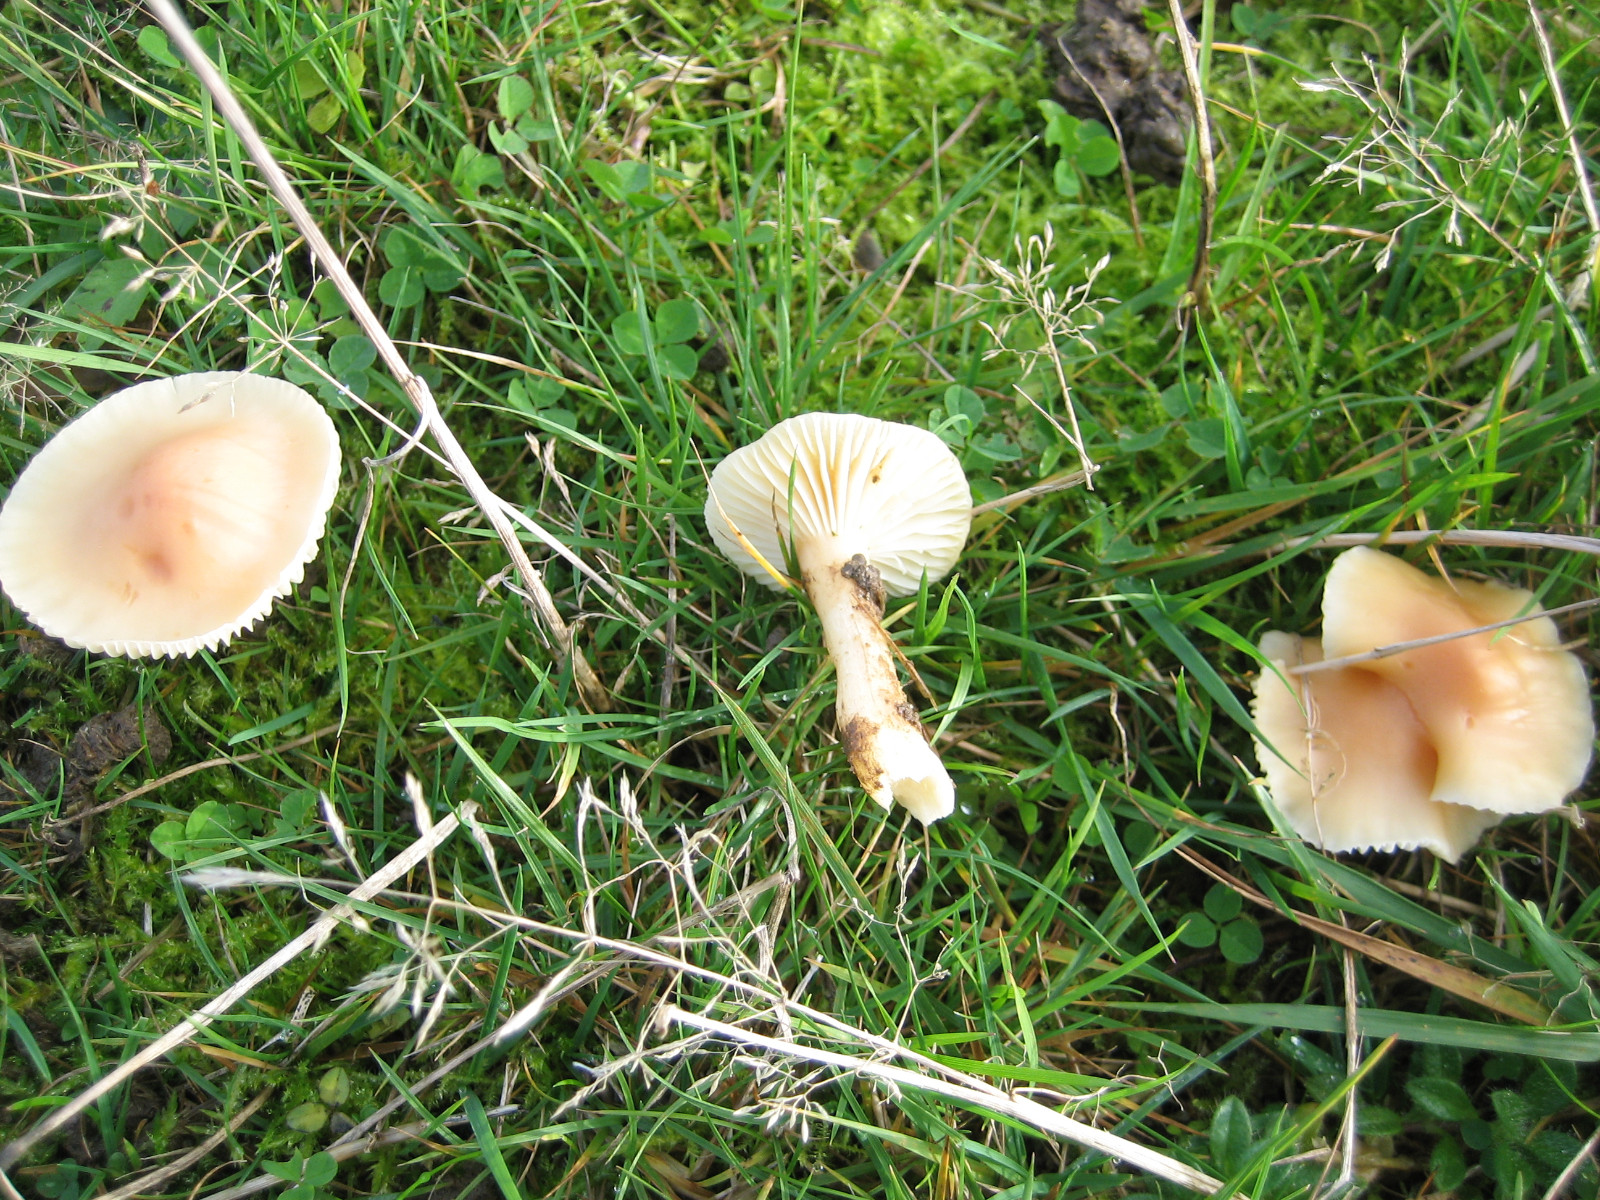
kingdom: Fungi
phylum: Basidiomycota
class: Agaricomycetes
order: Agaricales
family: Hygrophoraceae
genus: Cuphophyllus
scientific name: Cuphophyllus pratensis
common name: eng-vokshat
